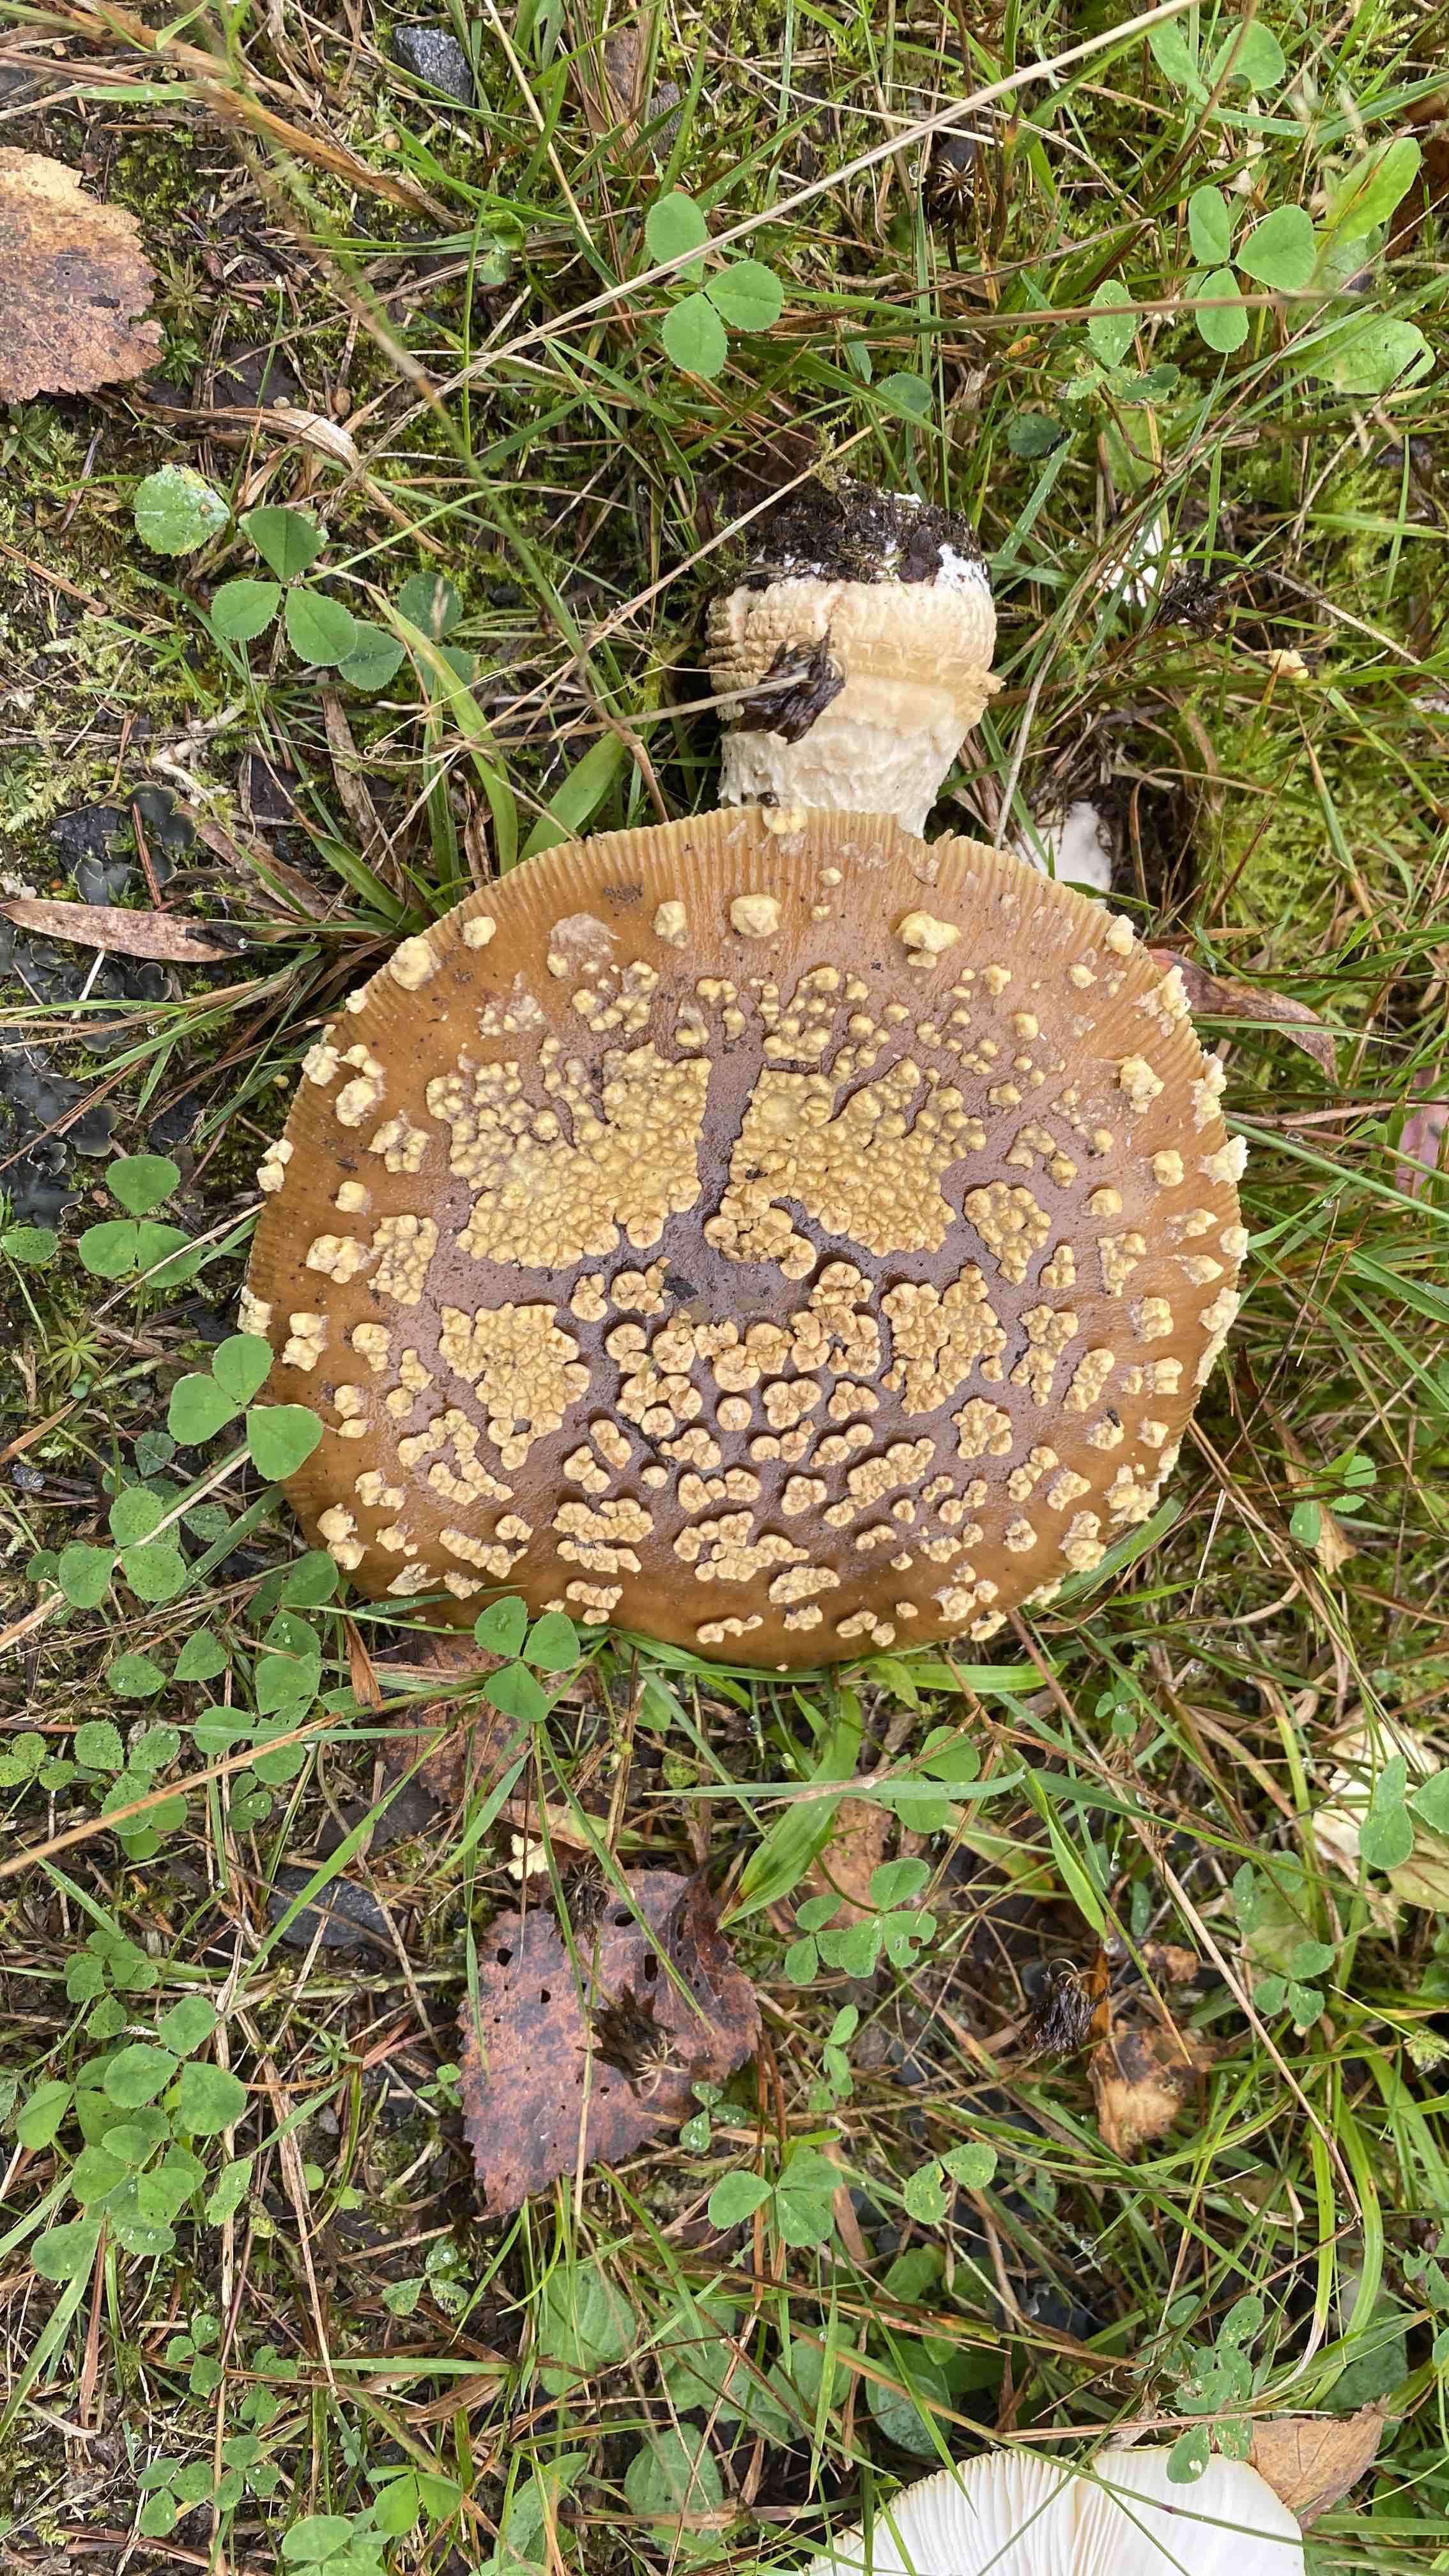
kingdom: Fungi
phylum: Basidiomycota
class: Agaricomycetes
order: Agaricales
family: Amanitaceae
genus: Amanita
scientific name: Amanita regalis
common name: brun fluesvamp
